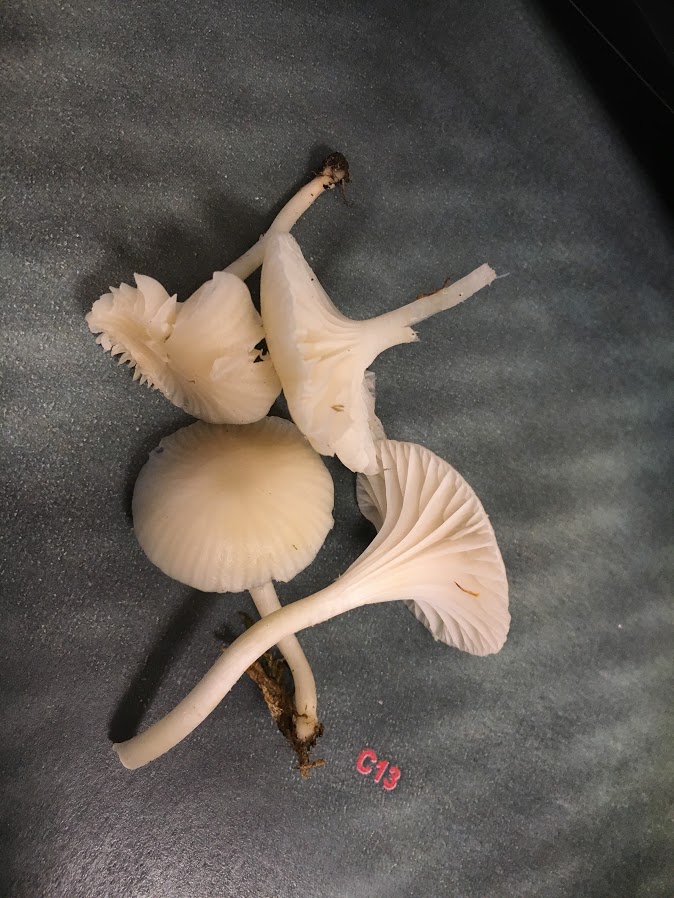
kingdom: Fungi
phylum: Basidiomycota
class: Agaricomycetes
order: Agaricales
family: Hygrophoraceae
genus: Cuphophyllus
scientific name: Cuphophyllus virgineus
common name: snehvid vokshat
